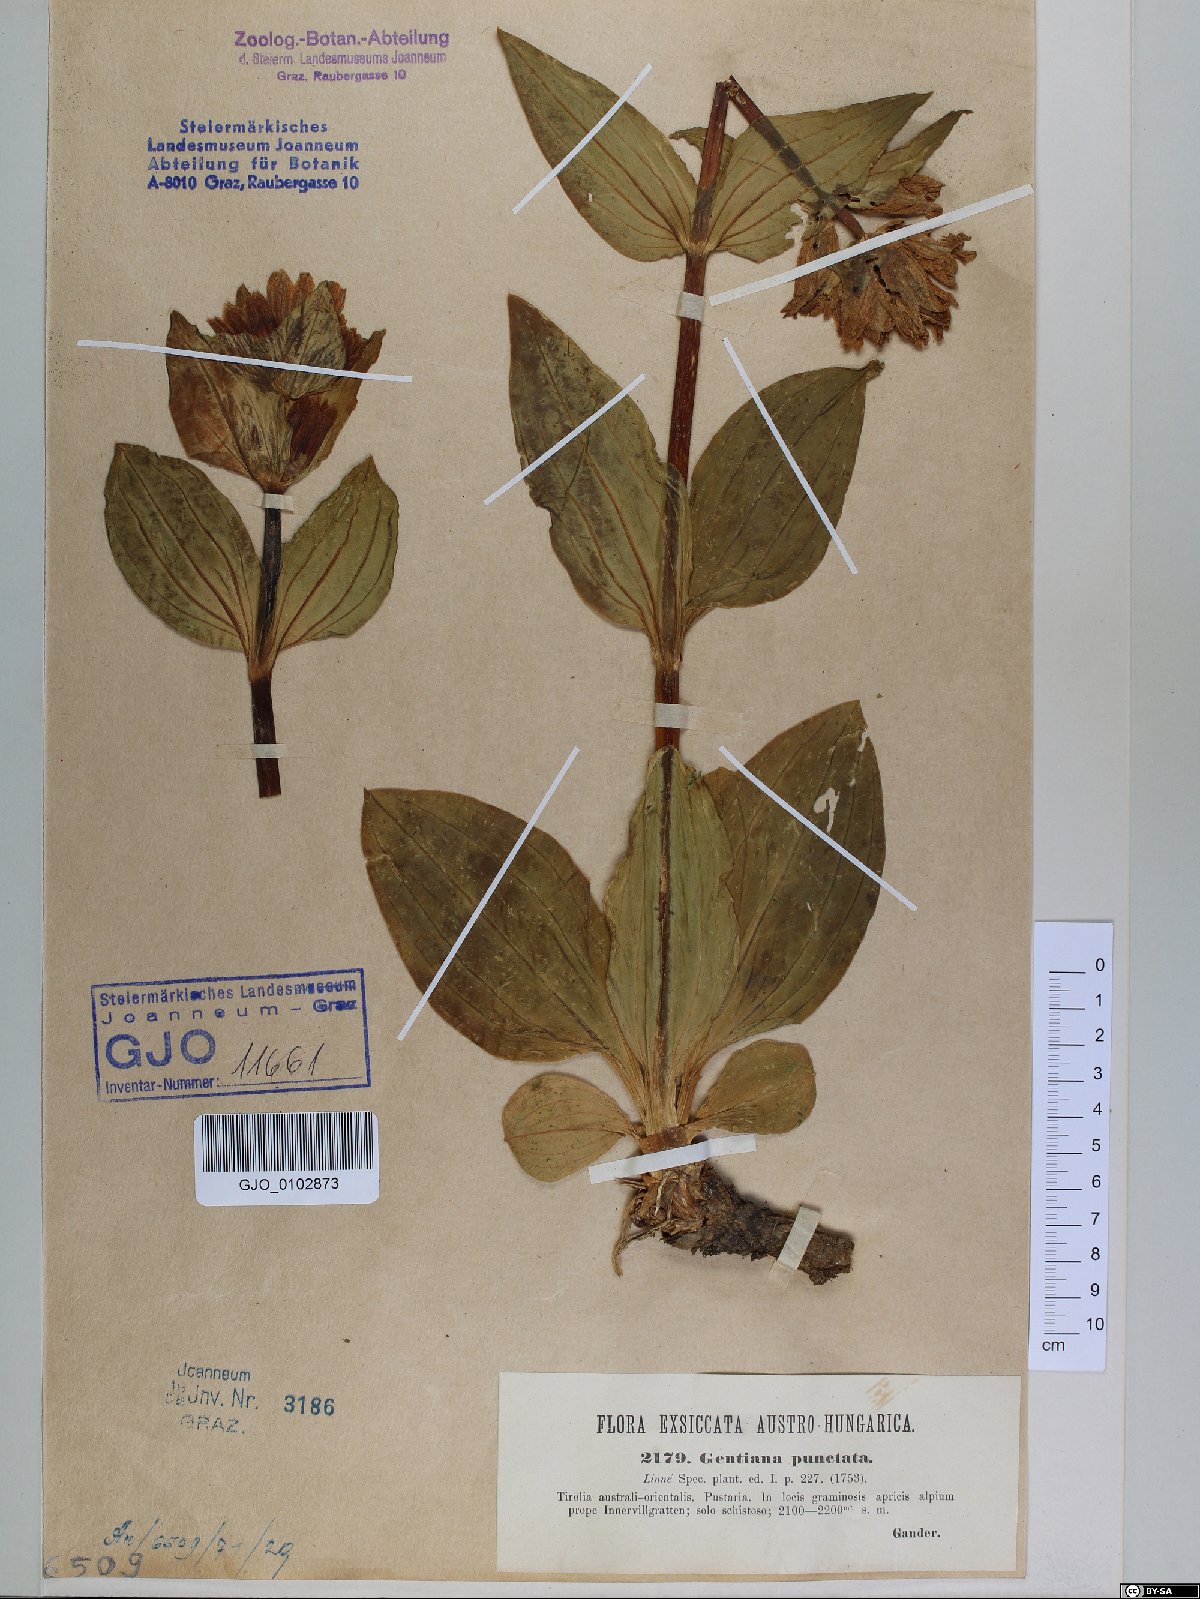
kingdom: Plantae
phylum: Tracheophyta
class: Magnoliopsida
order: Gentianales
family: Gentianaceae
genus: Gentiana
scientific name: Gentiana punctata
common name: Spotted gentian
